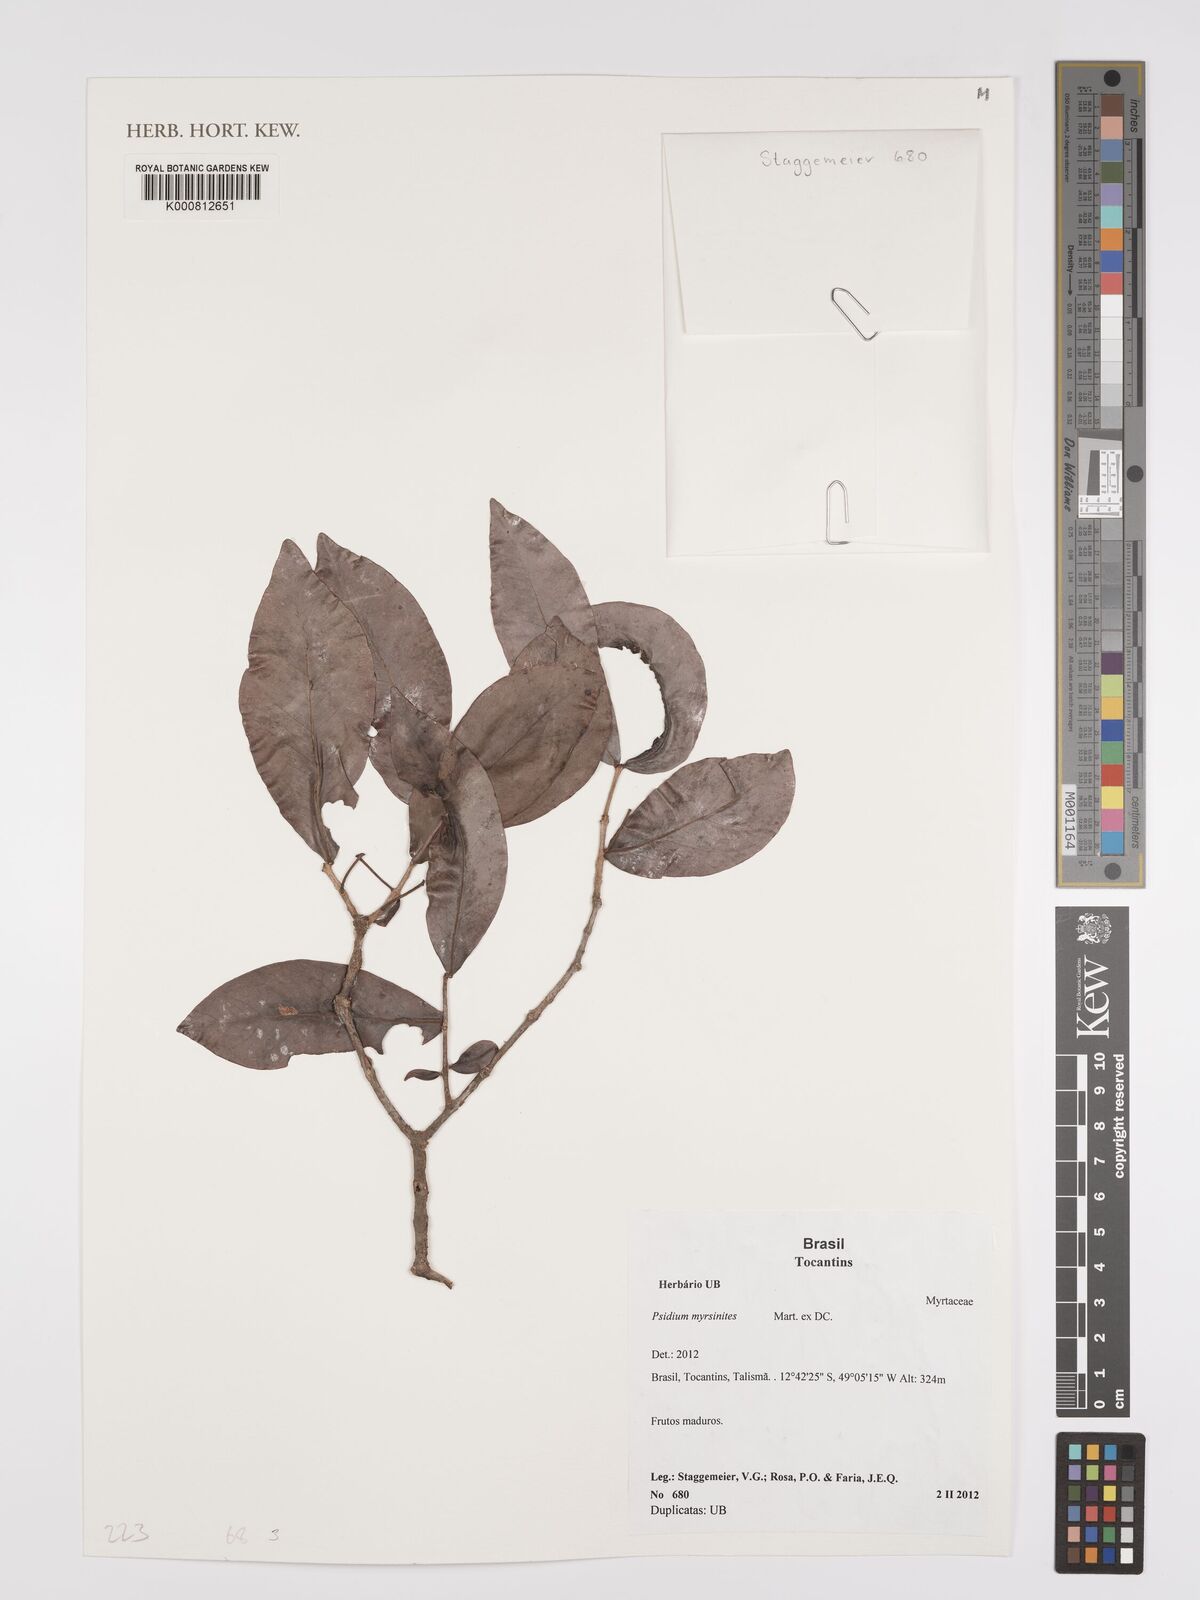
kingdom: Plantae
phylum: Tracheophyta
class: Magnoliopsida
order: Myrtales
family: Myrtaceae
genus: Psidium
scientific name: Psidium myrsinites
